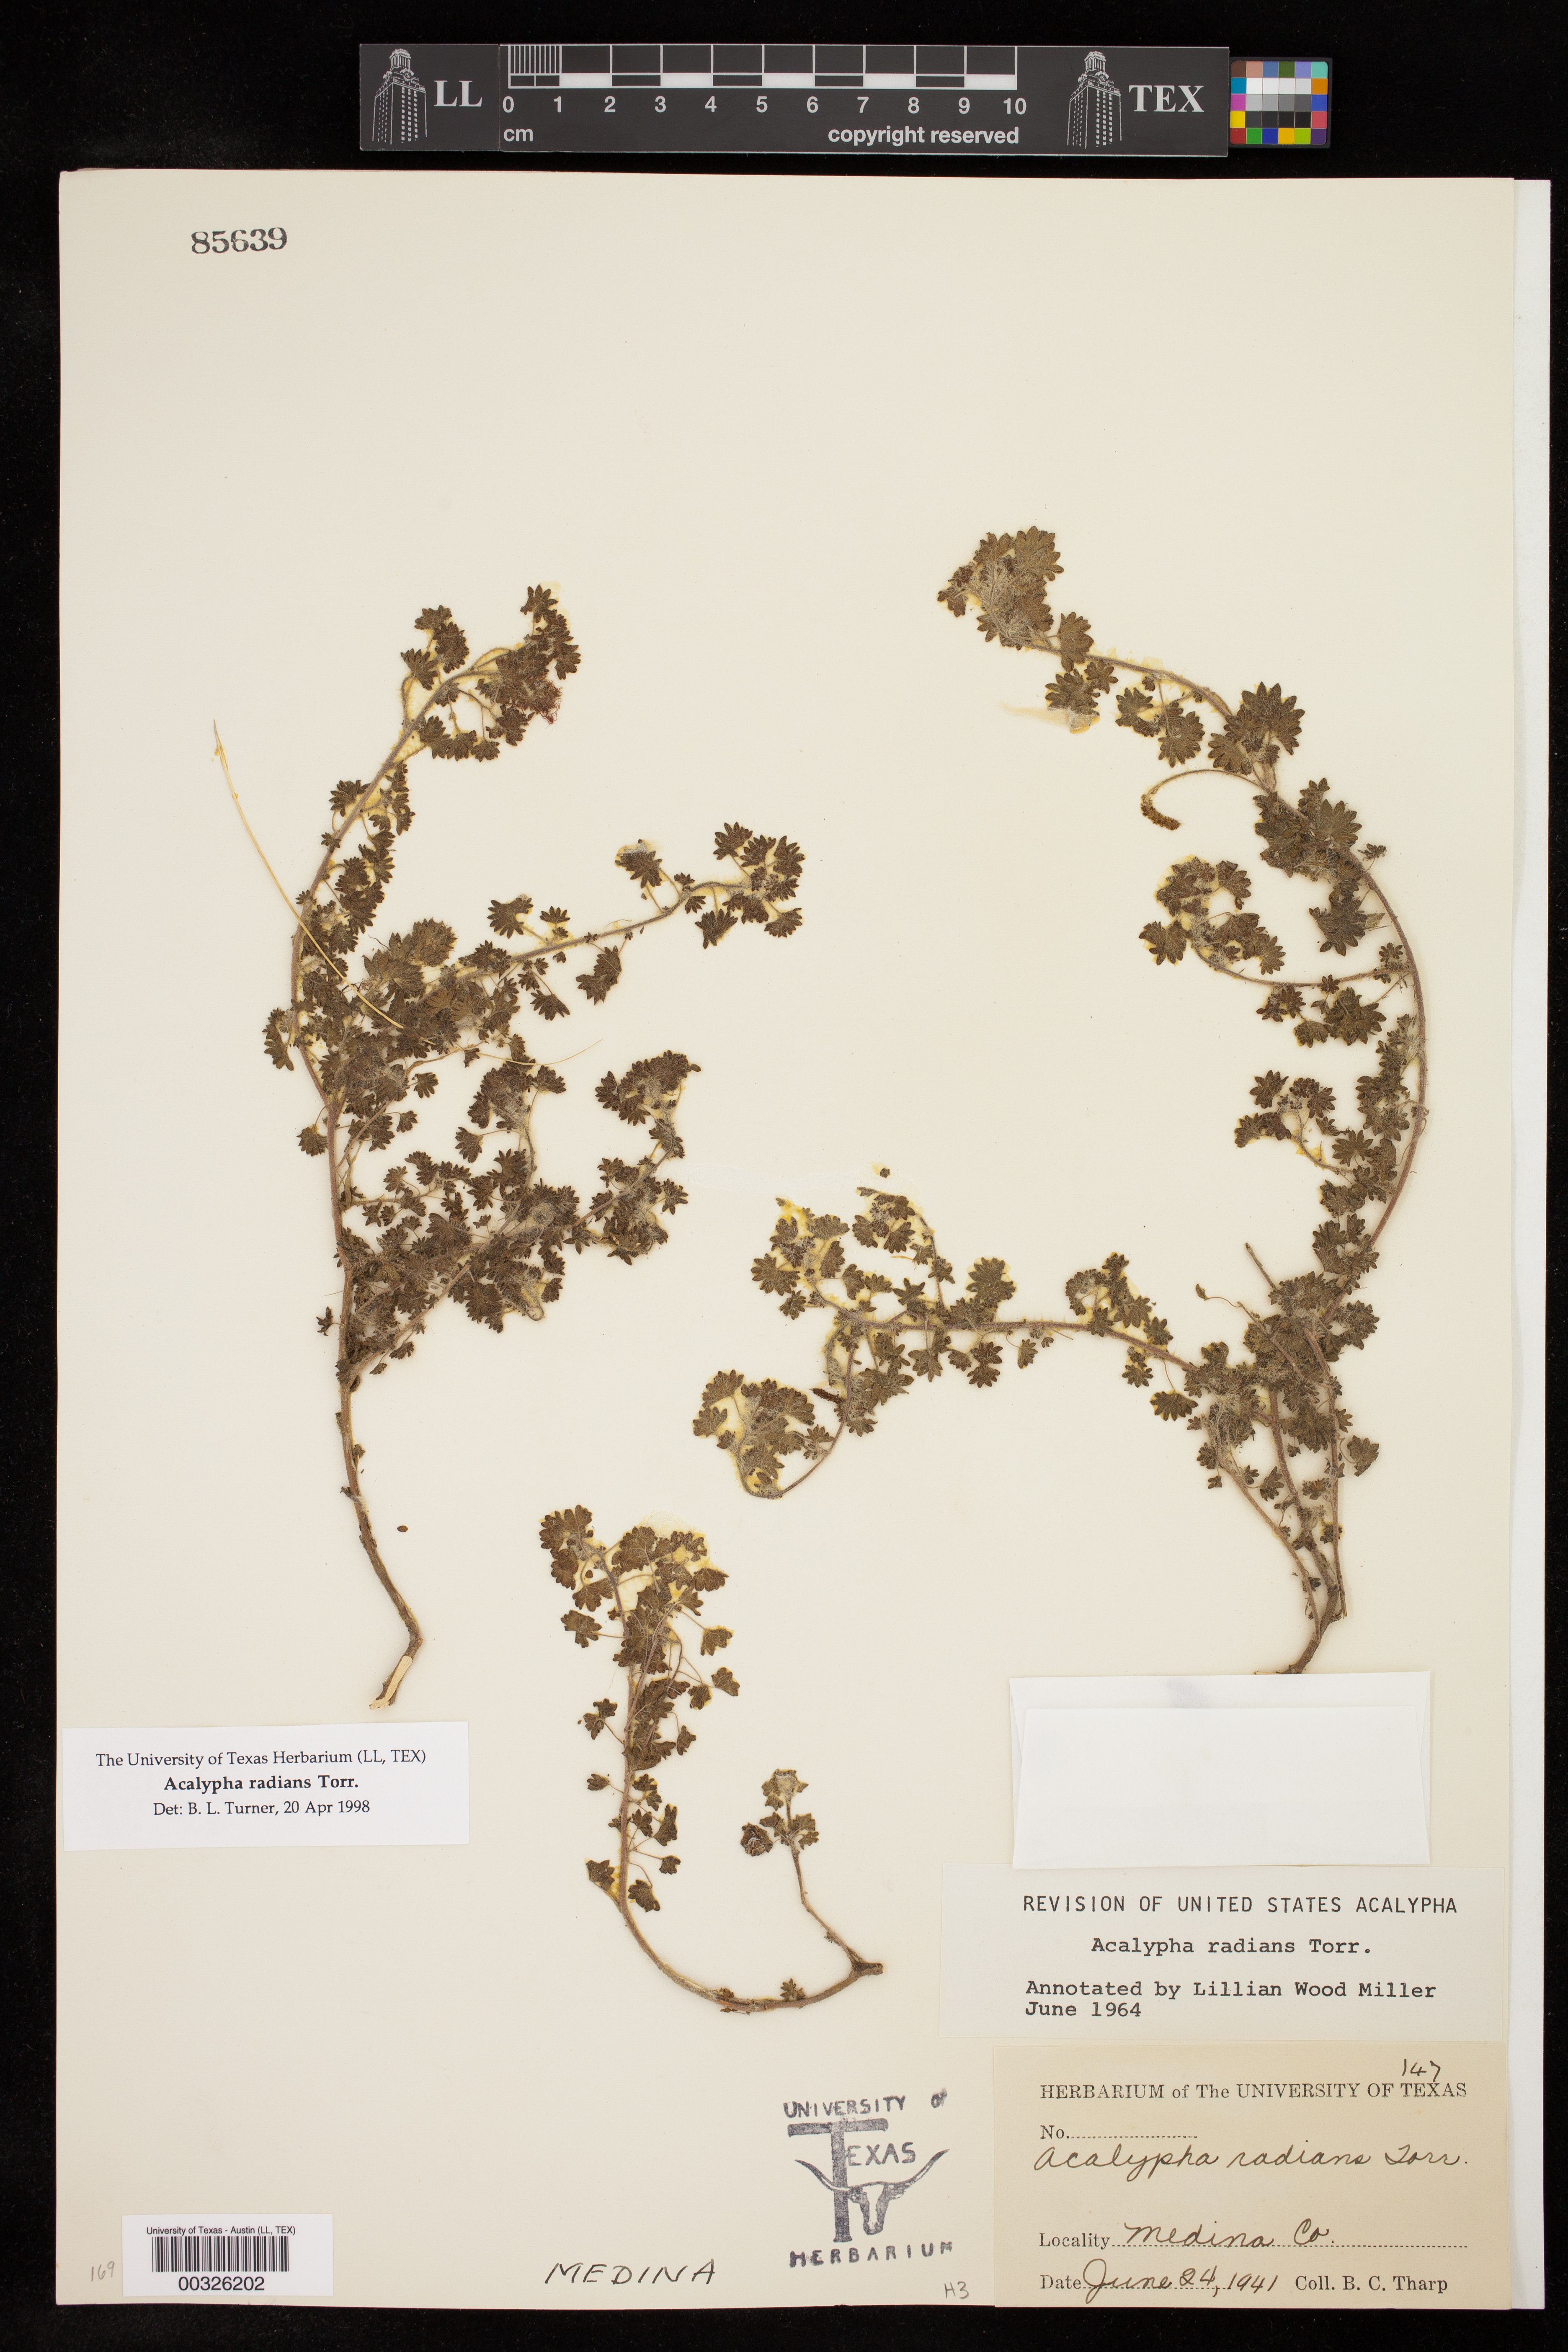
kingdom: Plantae
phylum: Tracheophyta
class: Magnoliopsida
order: Malpighiales
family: Euphorbiaceae
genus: Acalypha
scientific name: Acalypha radians
